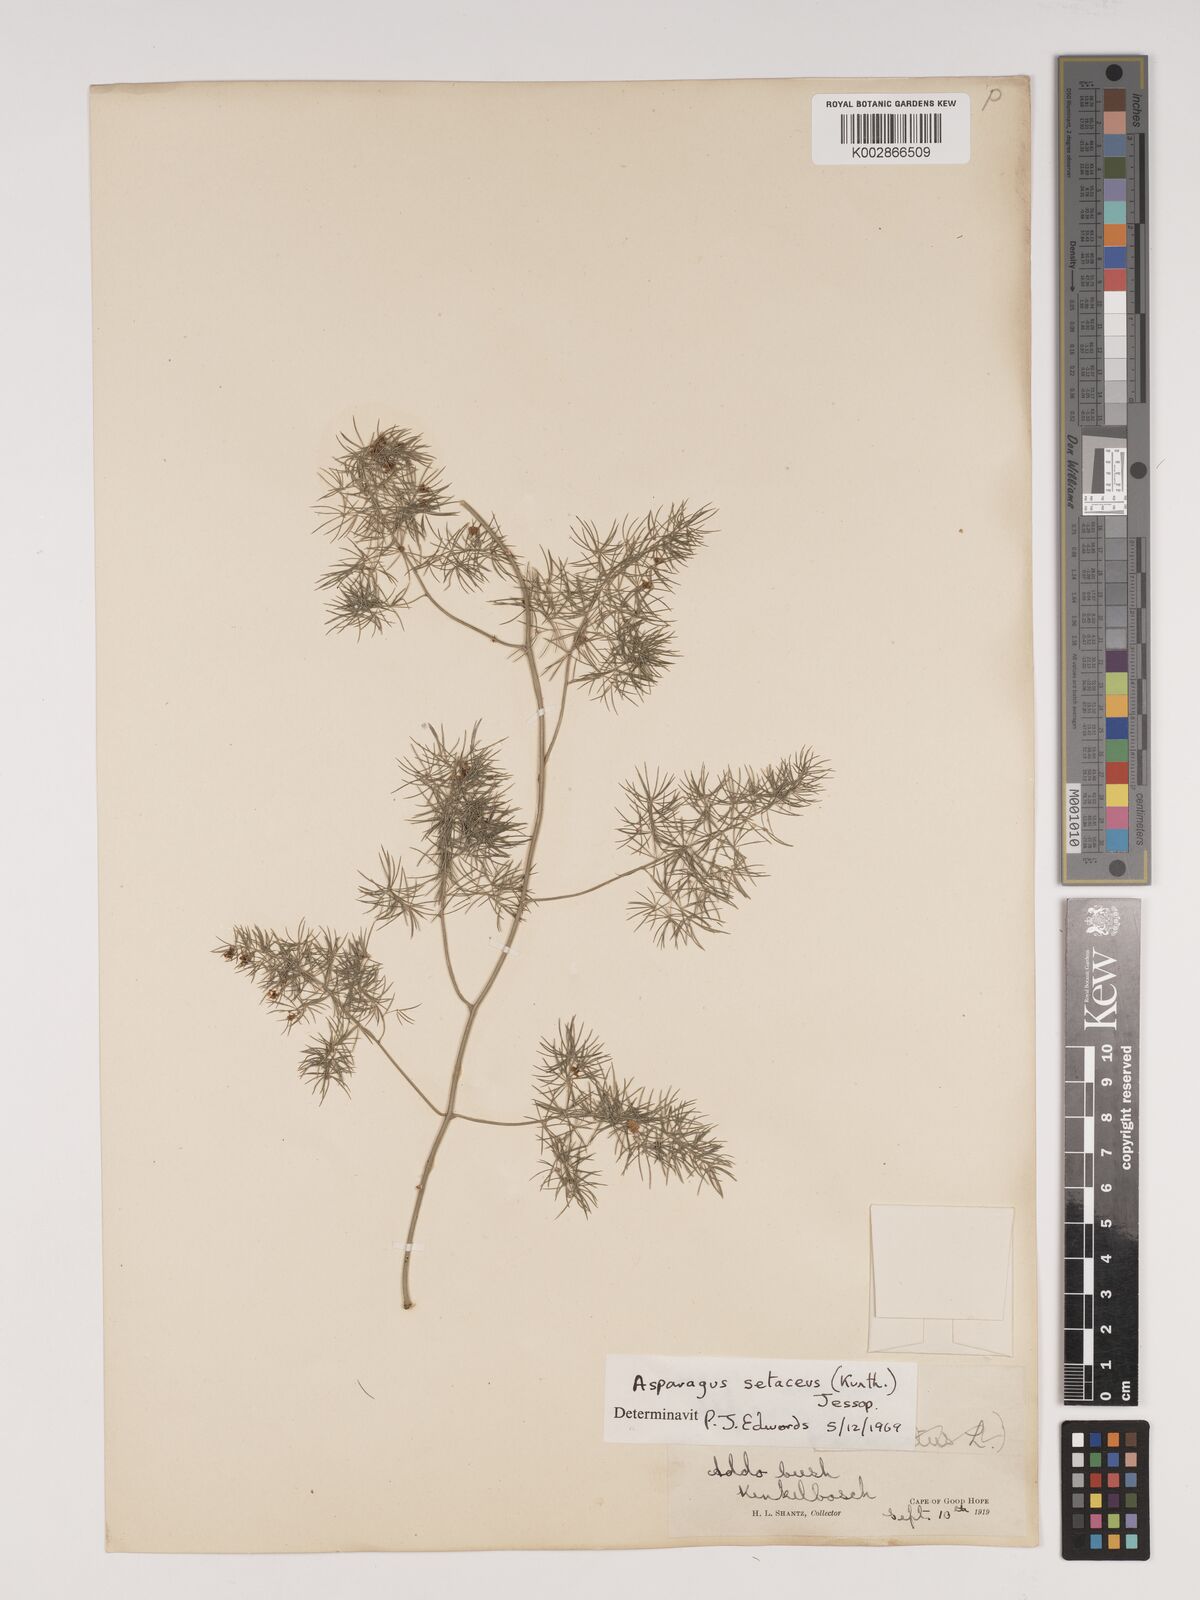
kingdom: Plantae
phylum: Tracheophyta
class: Liliopsida
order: Asparagales
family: Asparagaceae
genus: Asparagus
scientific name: Asparagus setaceus
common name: Common asparagus fern
